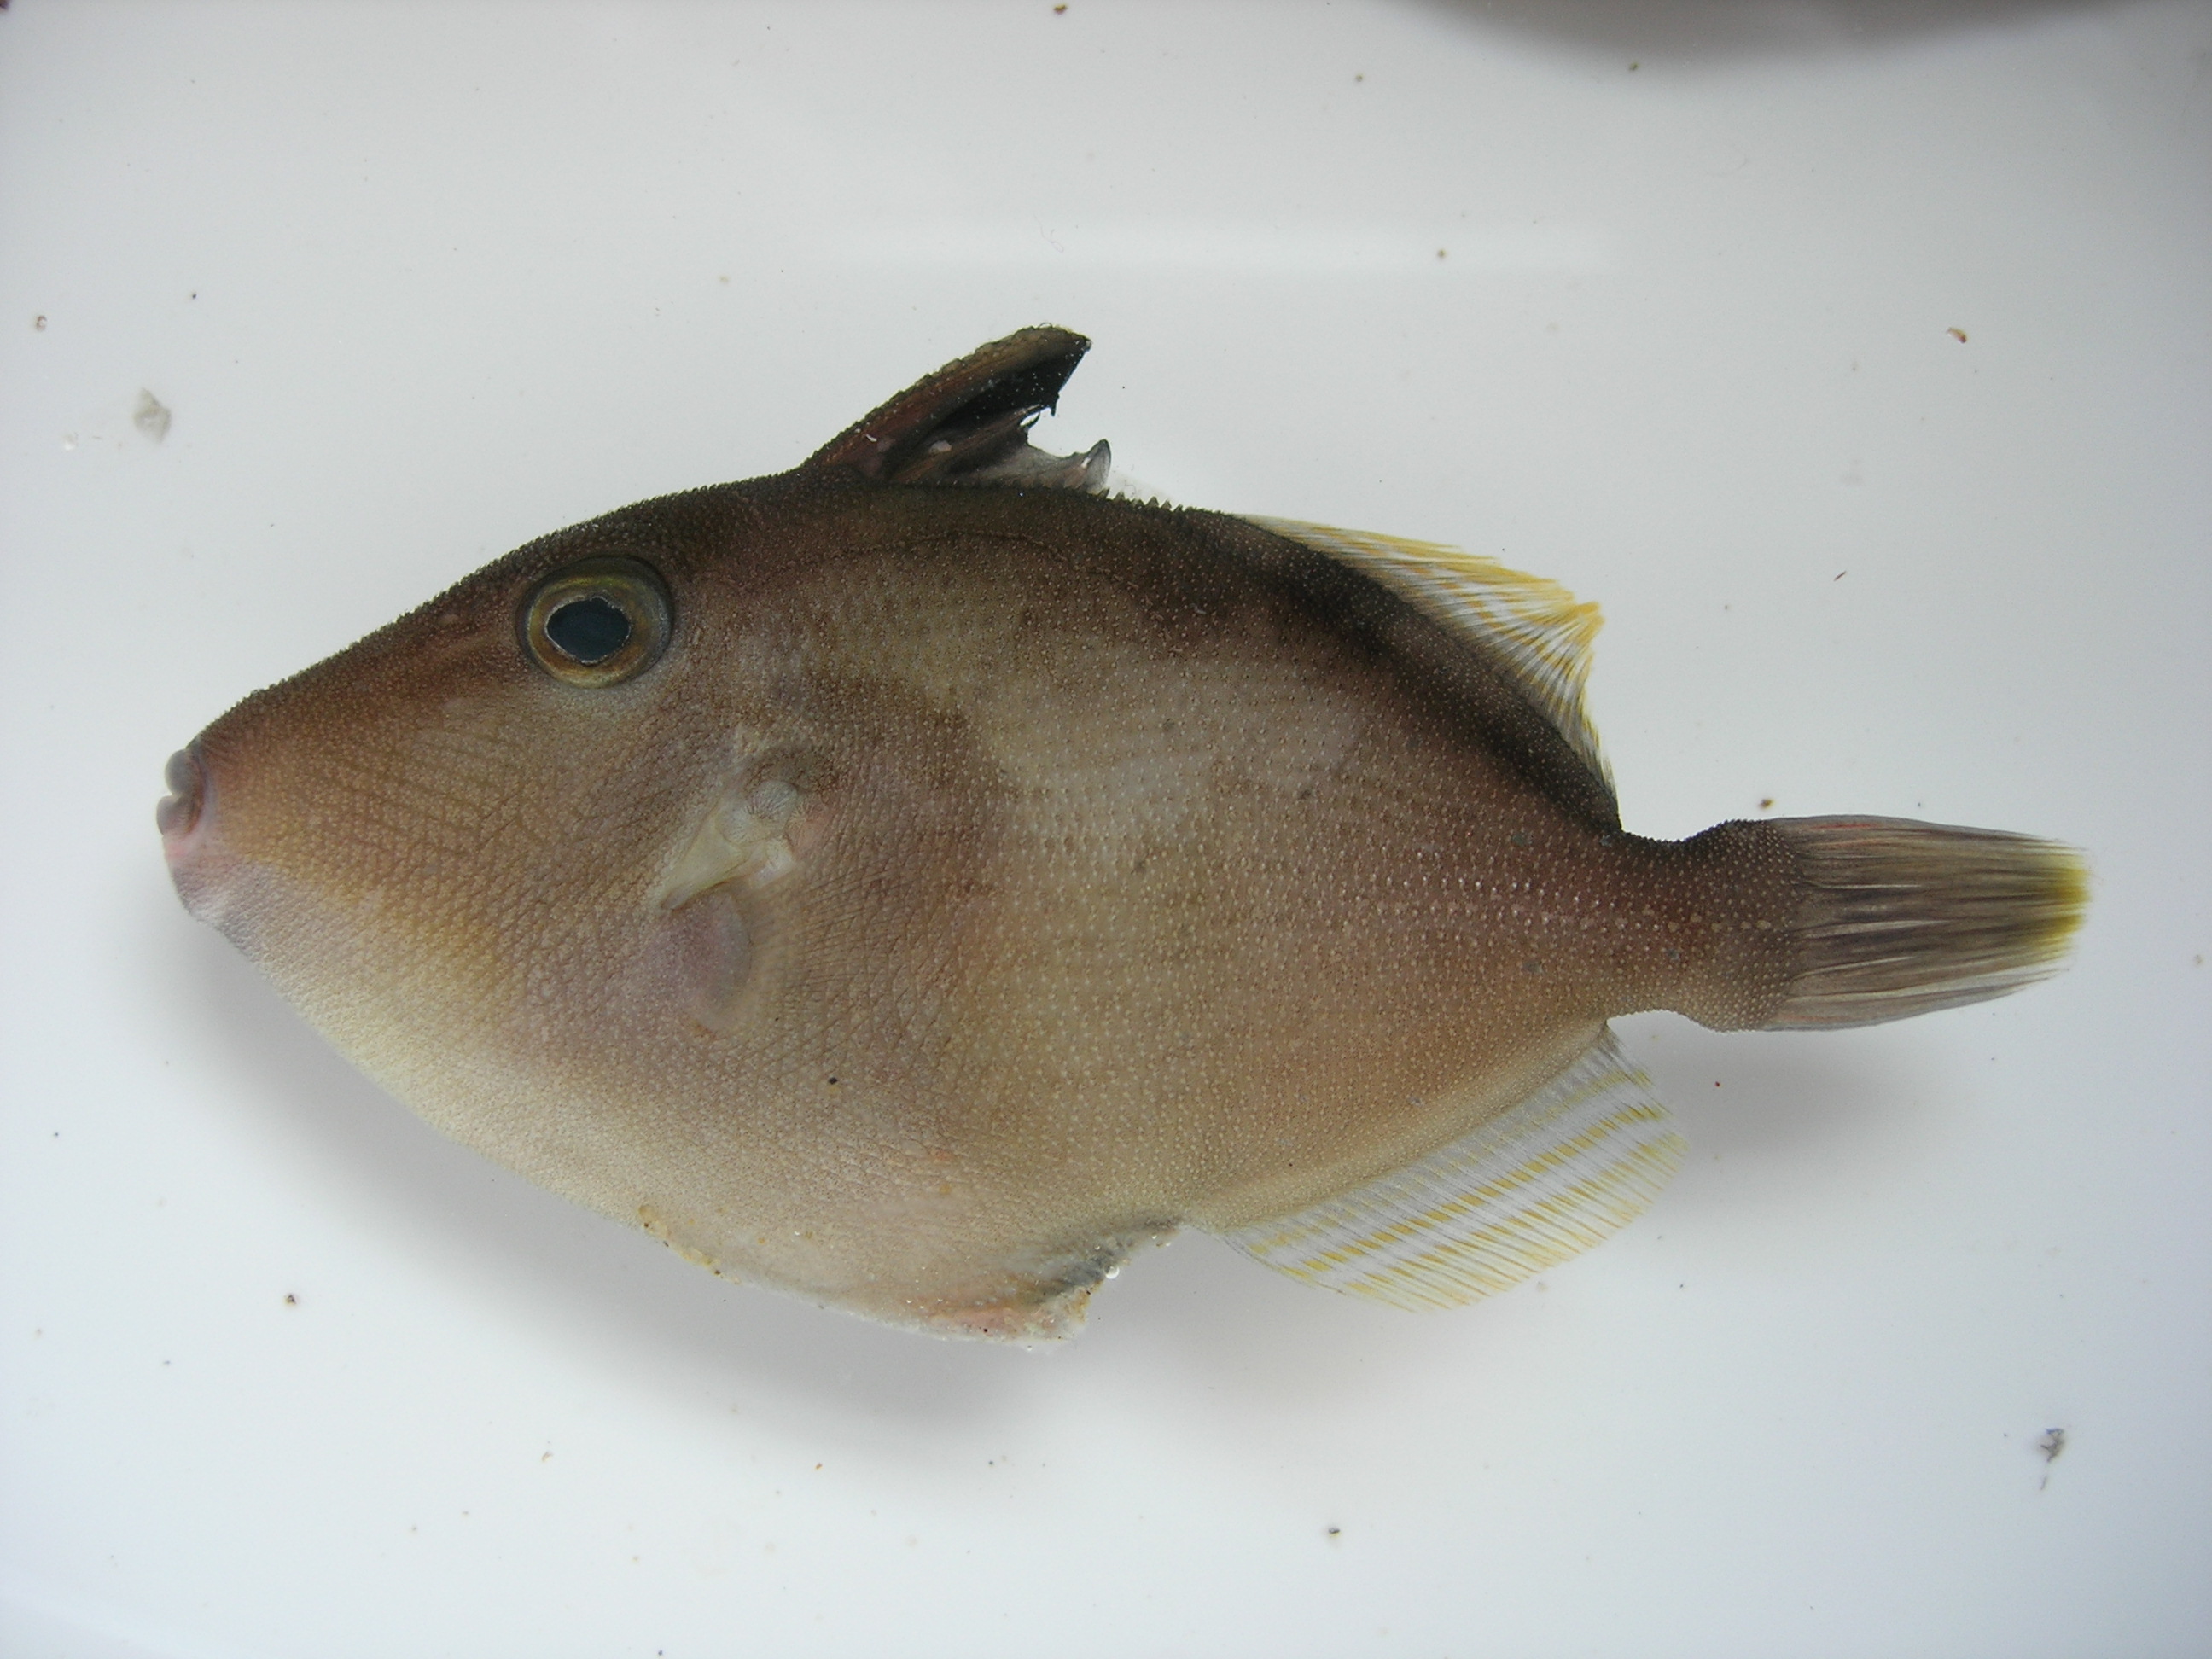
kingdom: Animalia
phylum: Chordata
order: Tetraodontiformes
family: Balistidae
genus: Sufflamen
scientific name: Sufflamen fraenatum
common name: Bridle triggerfish
